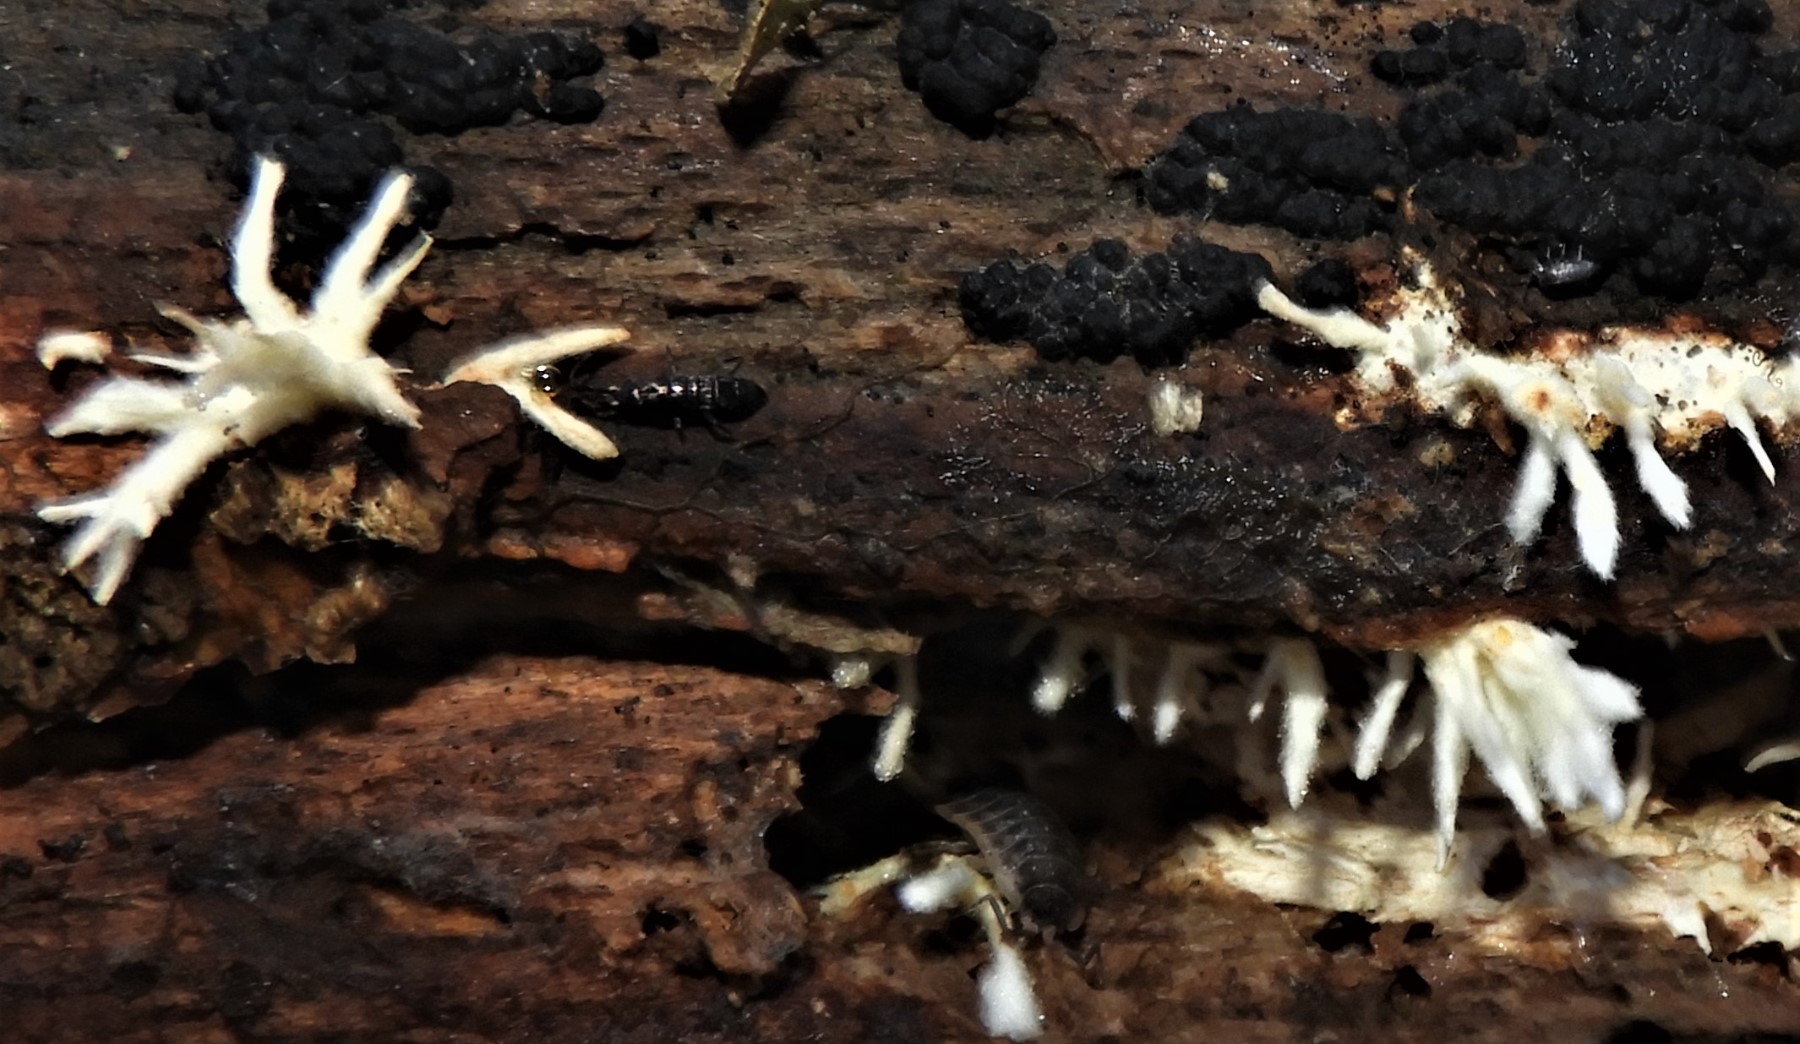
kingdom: Fungi
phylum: Ascomycota
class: Sordariomycetes
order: Xylariales
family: Xylariaceae
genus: Xylaria
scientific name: Xylaria hypoxylon
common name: grenet stødsvamp
